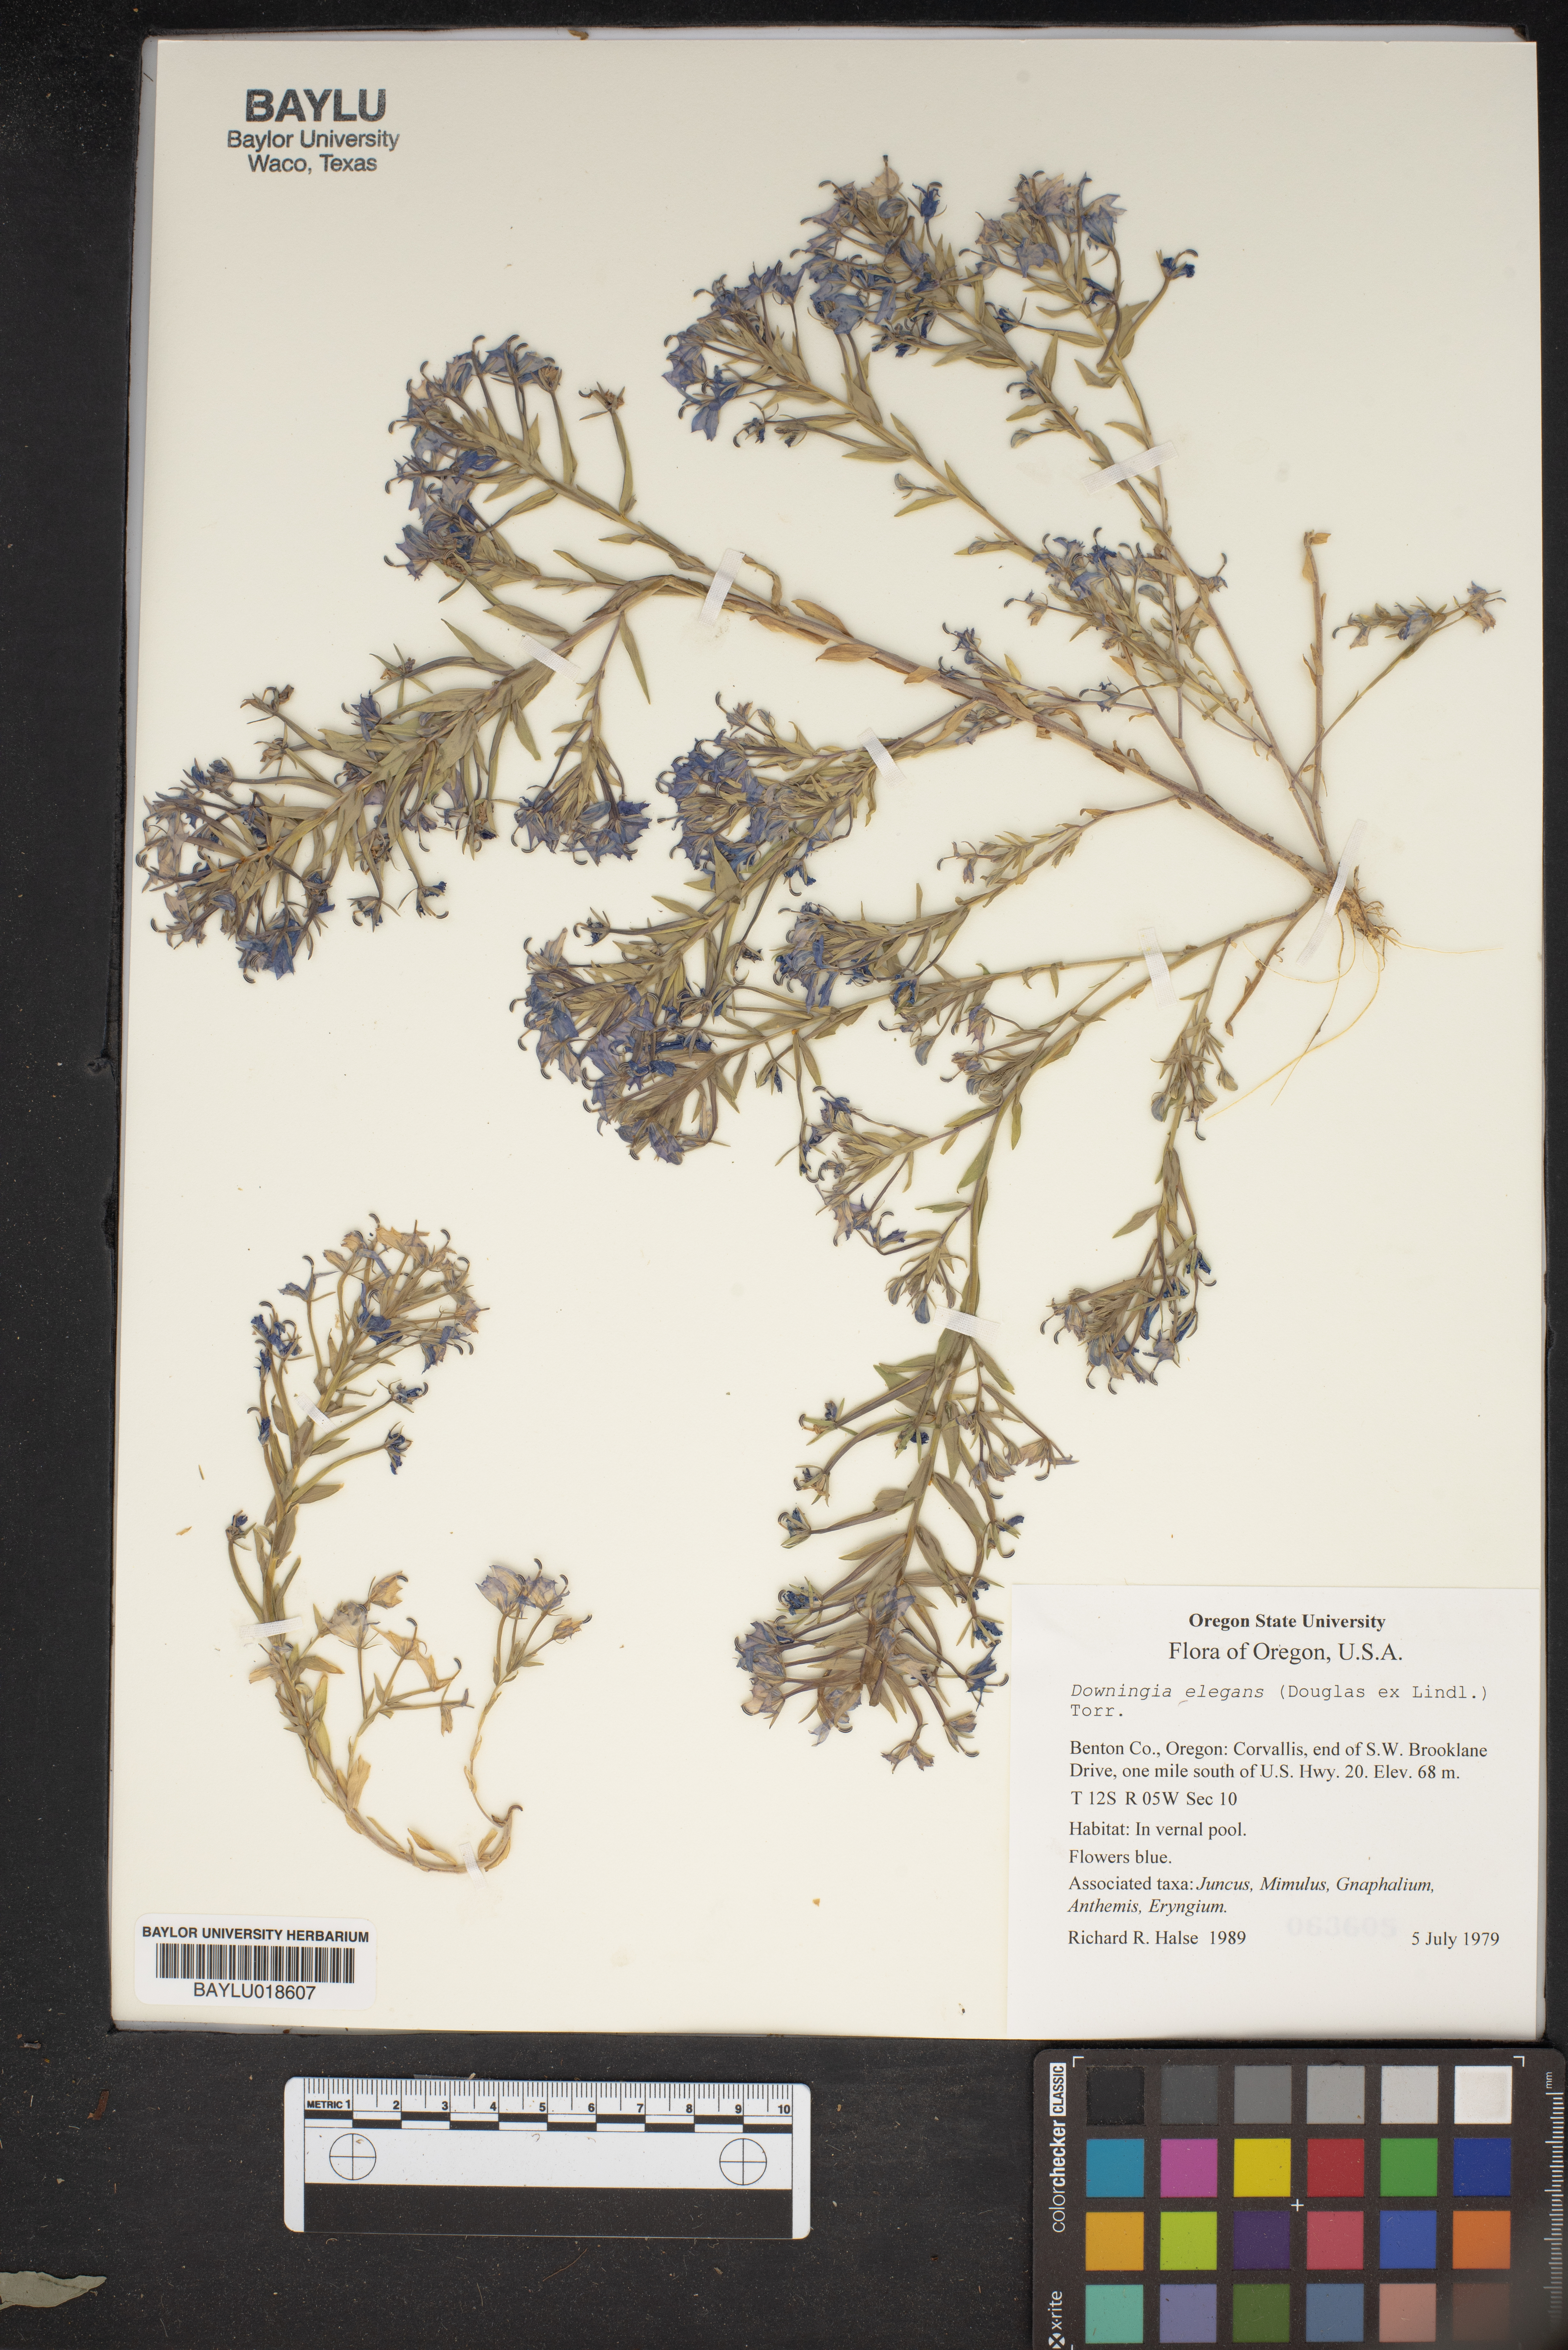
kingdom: Plantae
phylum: Tracheophyta
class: Magnoliopsida
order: Asterales
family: Campanulaceae
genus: Downingia
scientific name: Downingia elegans
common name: Californian lobelia
